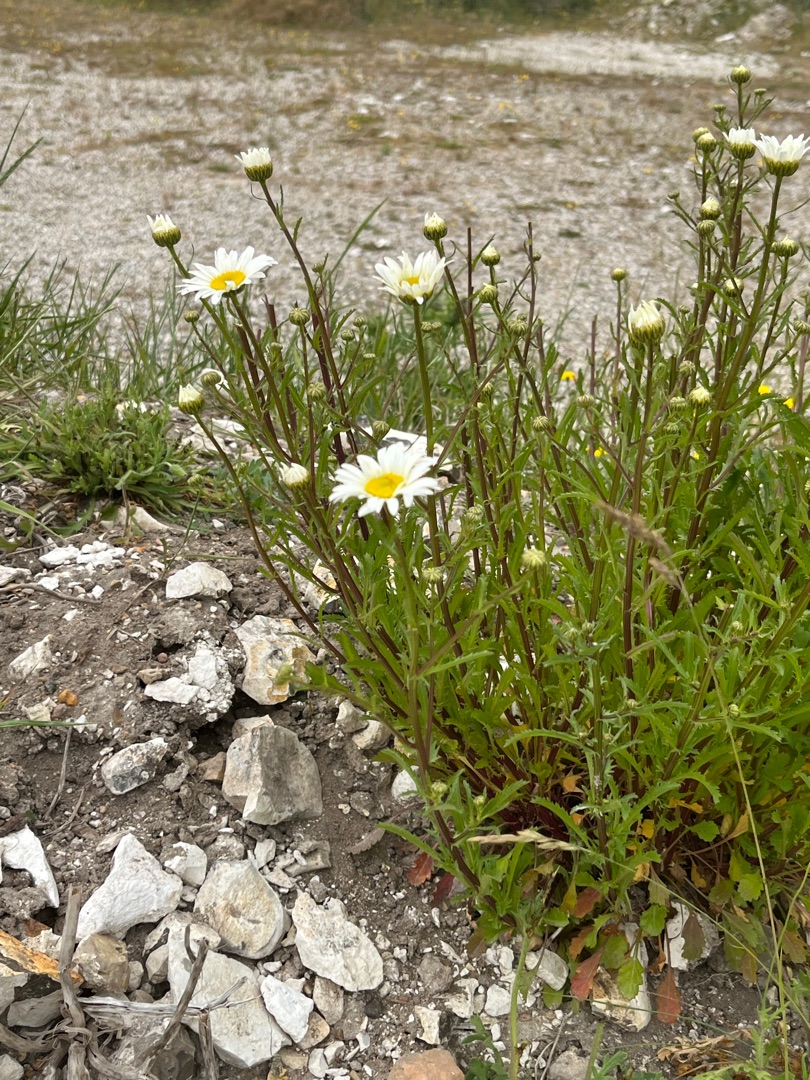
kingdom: Plantae
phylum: Tracheophyta
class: Magnoliopsida
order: Asterales
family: Asteraceae
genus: Leucanthemum
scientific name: Leucanthemum vulgare
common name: Hvid okseøje
